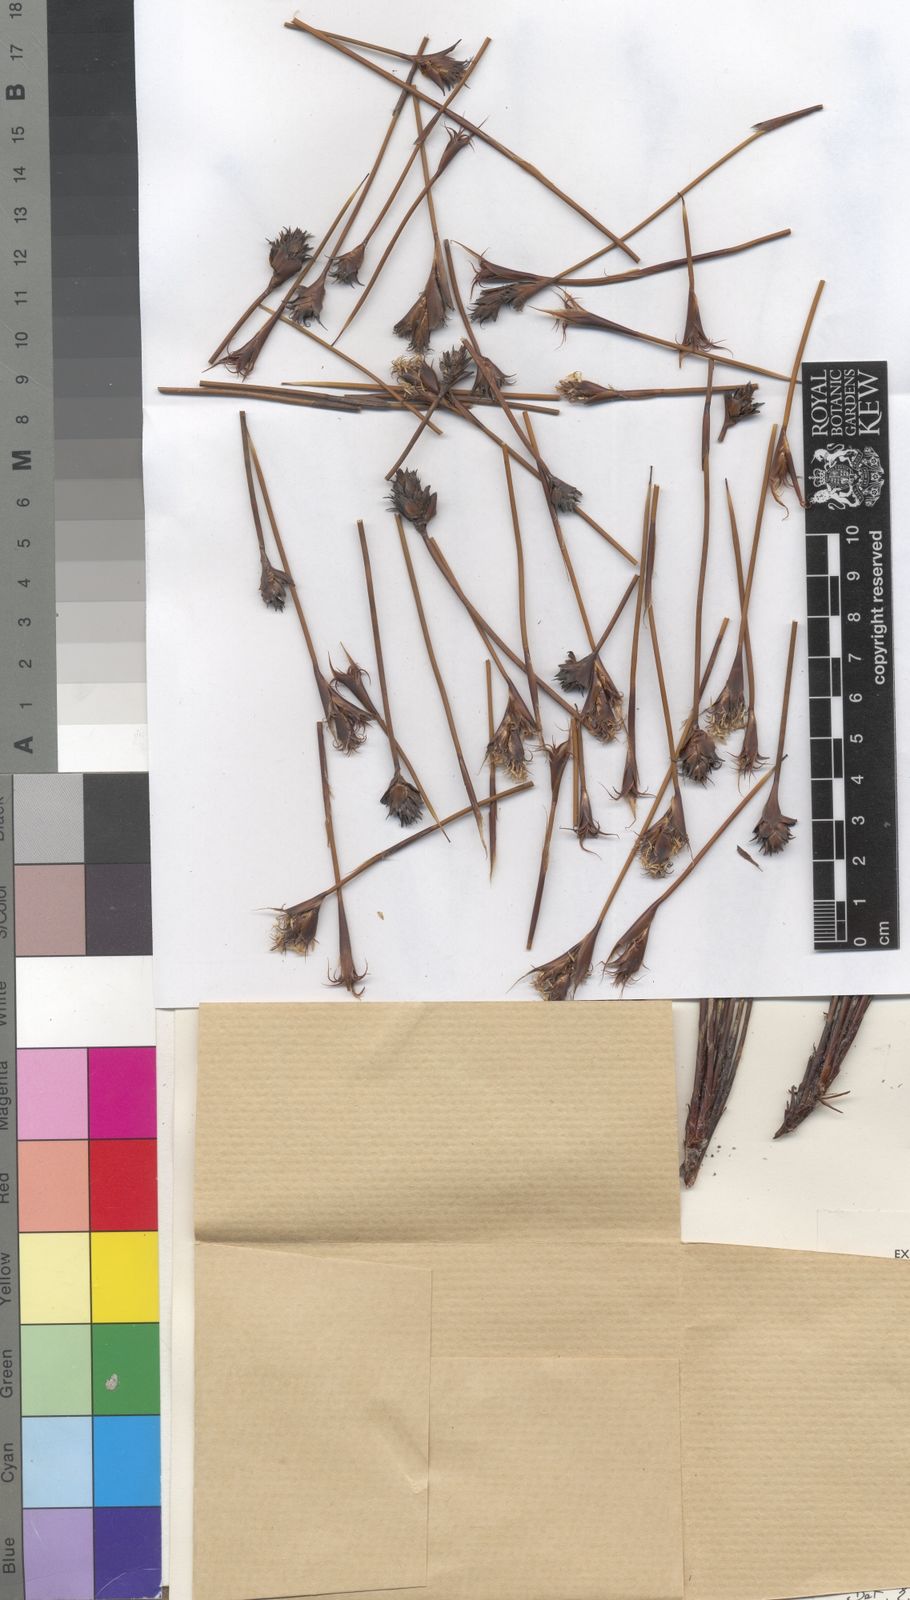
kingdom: Plantae
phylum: Tracheophyta
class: Liliopsida
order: Poales
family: Restionaceae
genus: Restio
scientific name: Restio curvibracteatus
